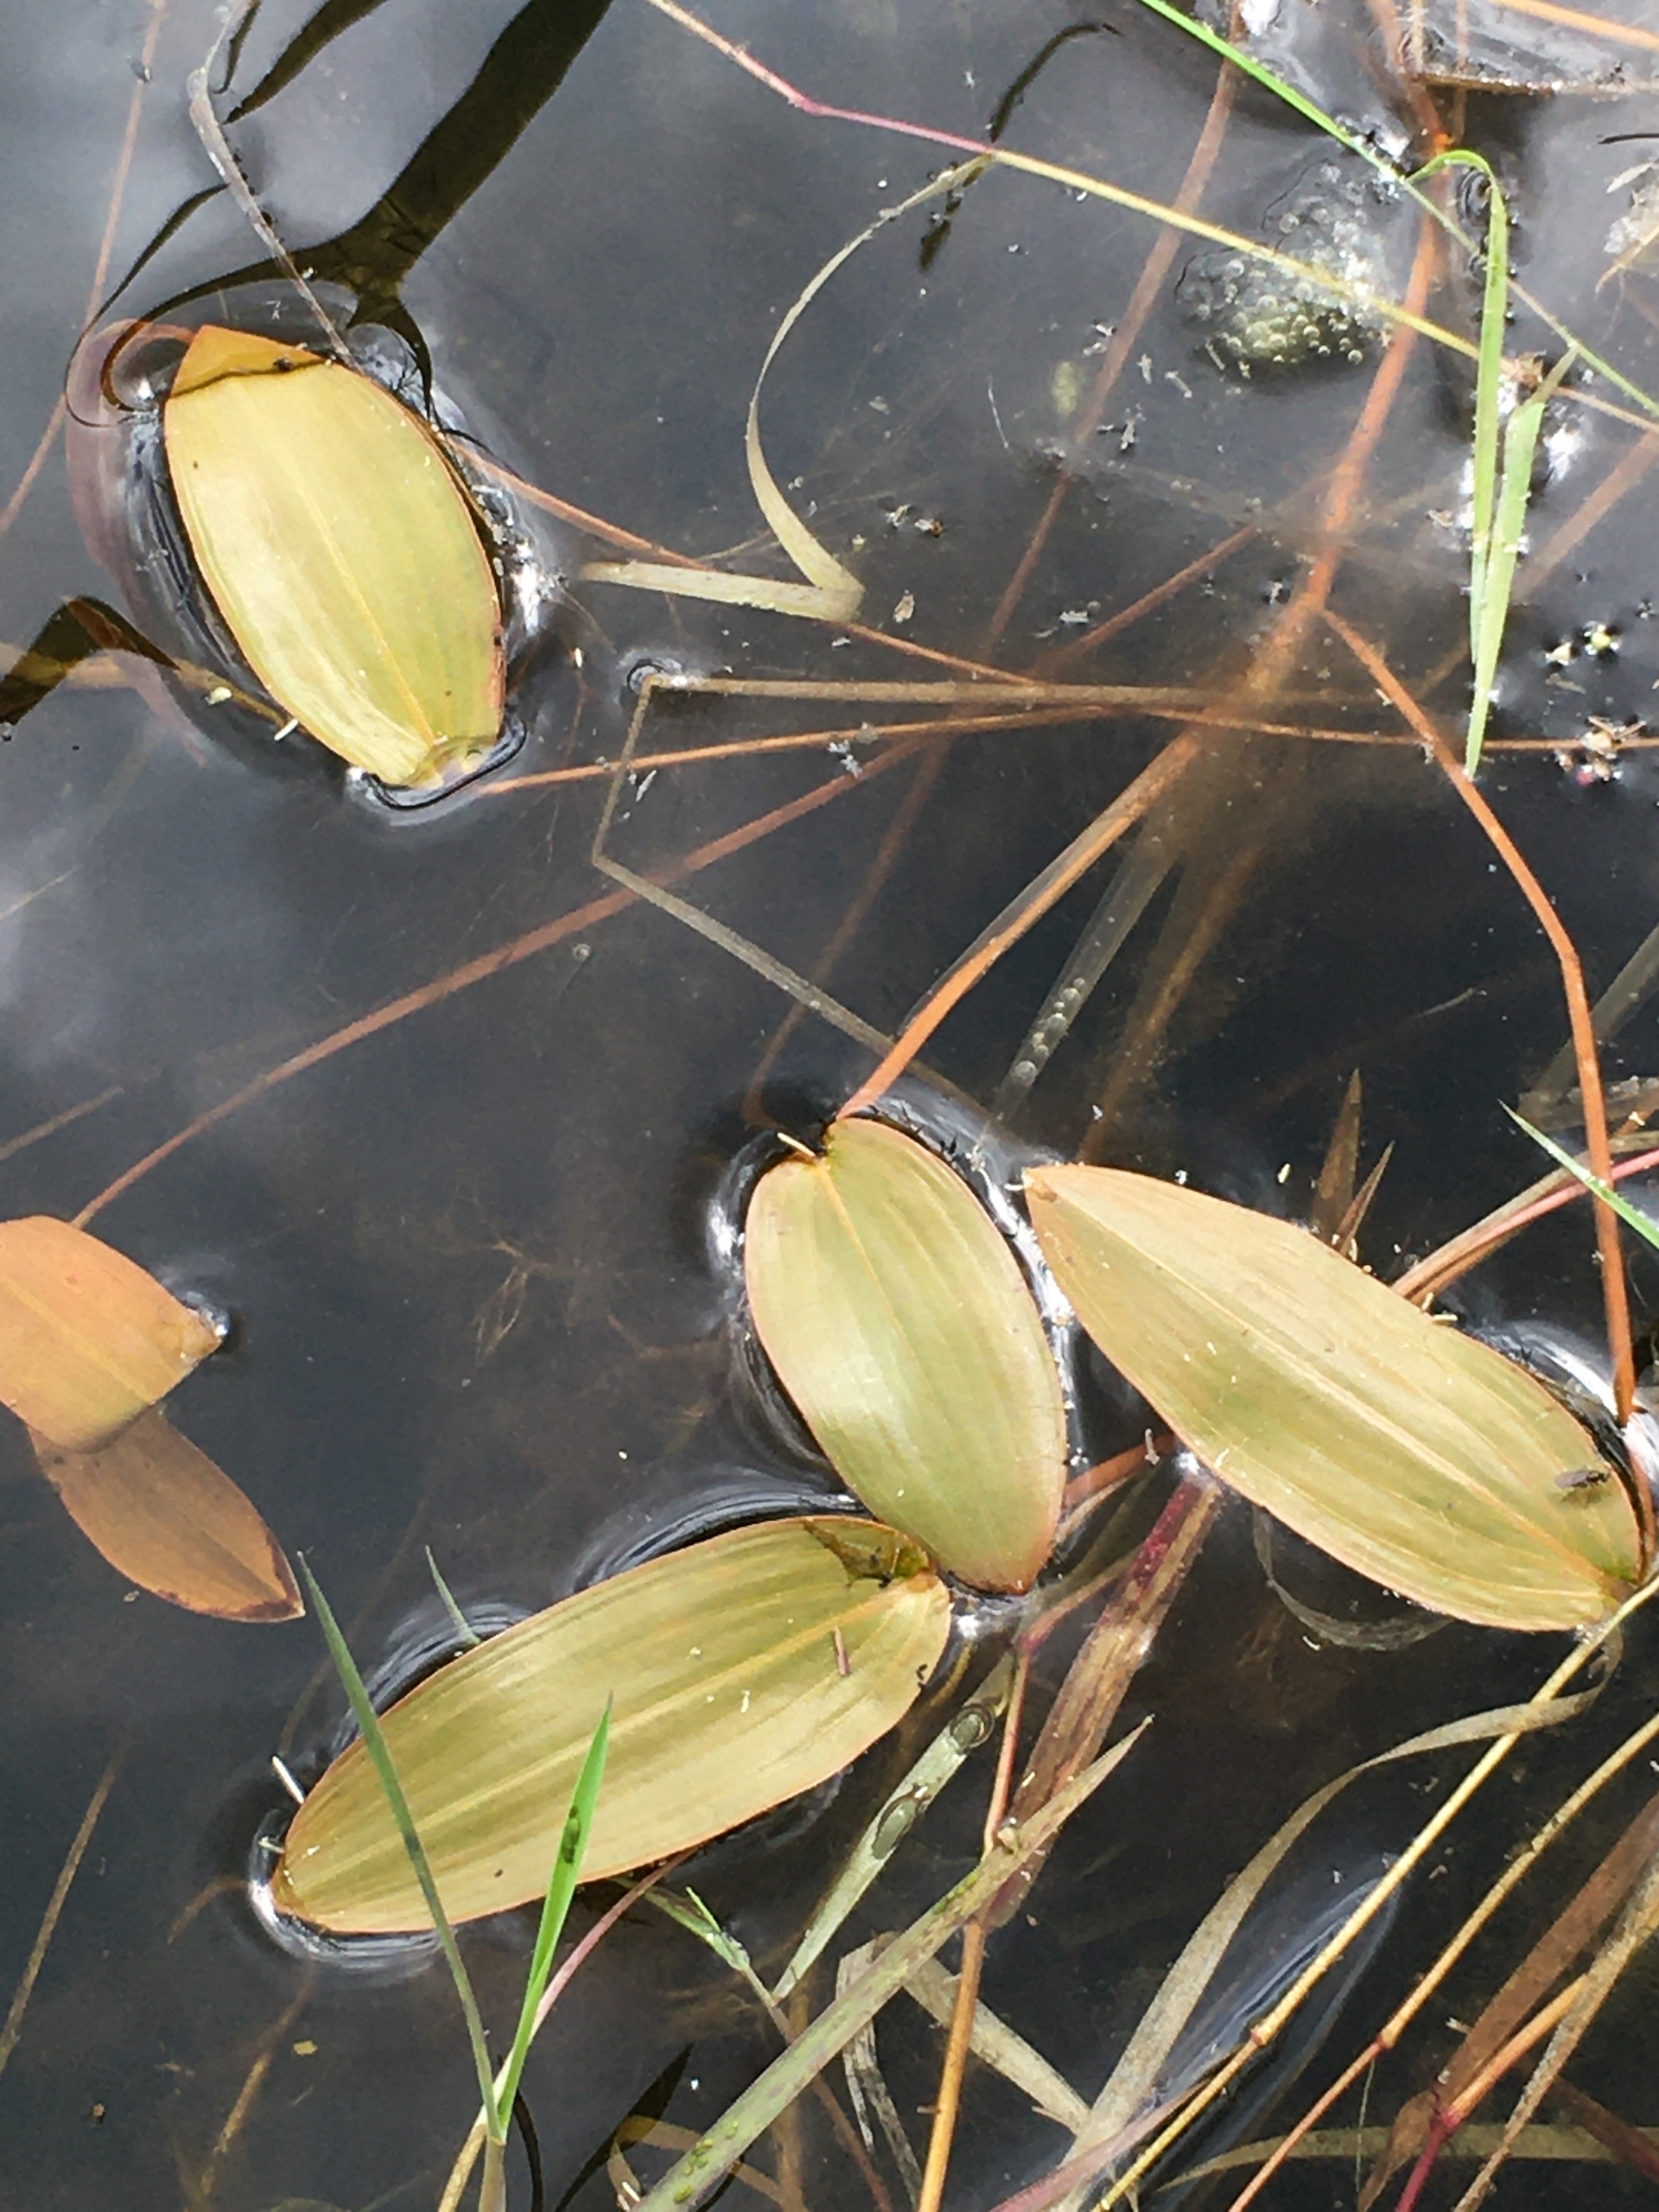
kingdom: Plantae
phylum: Tracheophyta
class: Liliopsida
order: Alismatales
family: Potamogetonaceae
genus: Potamogeton
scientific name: Potamogeton natans
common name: Svømmende vandaks
